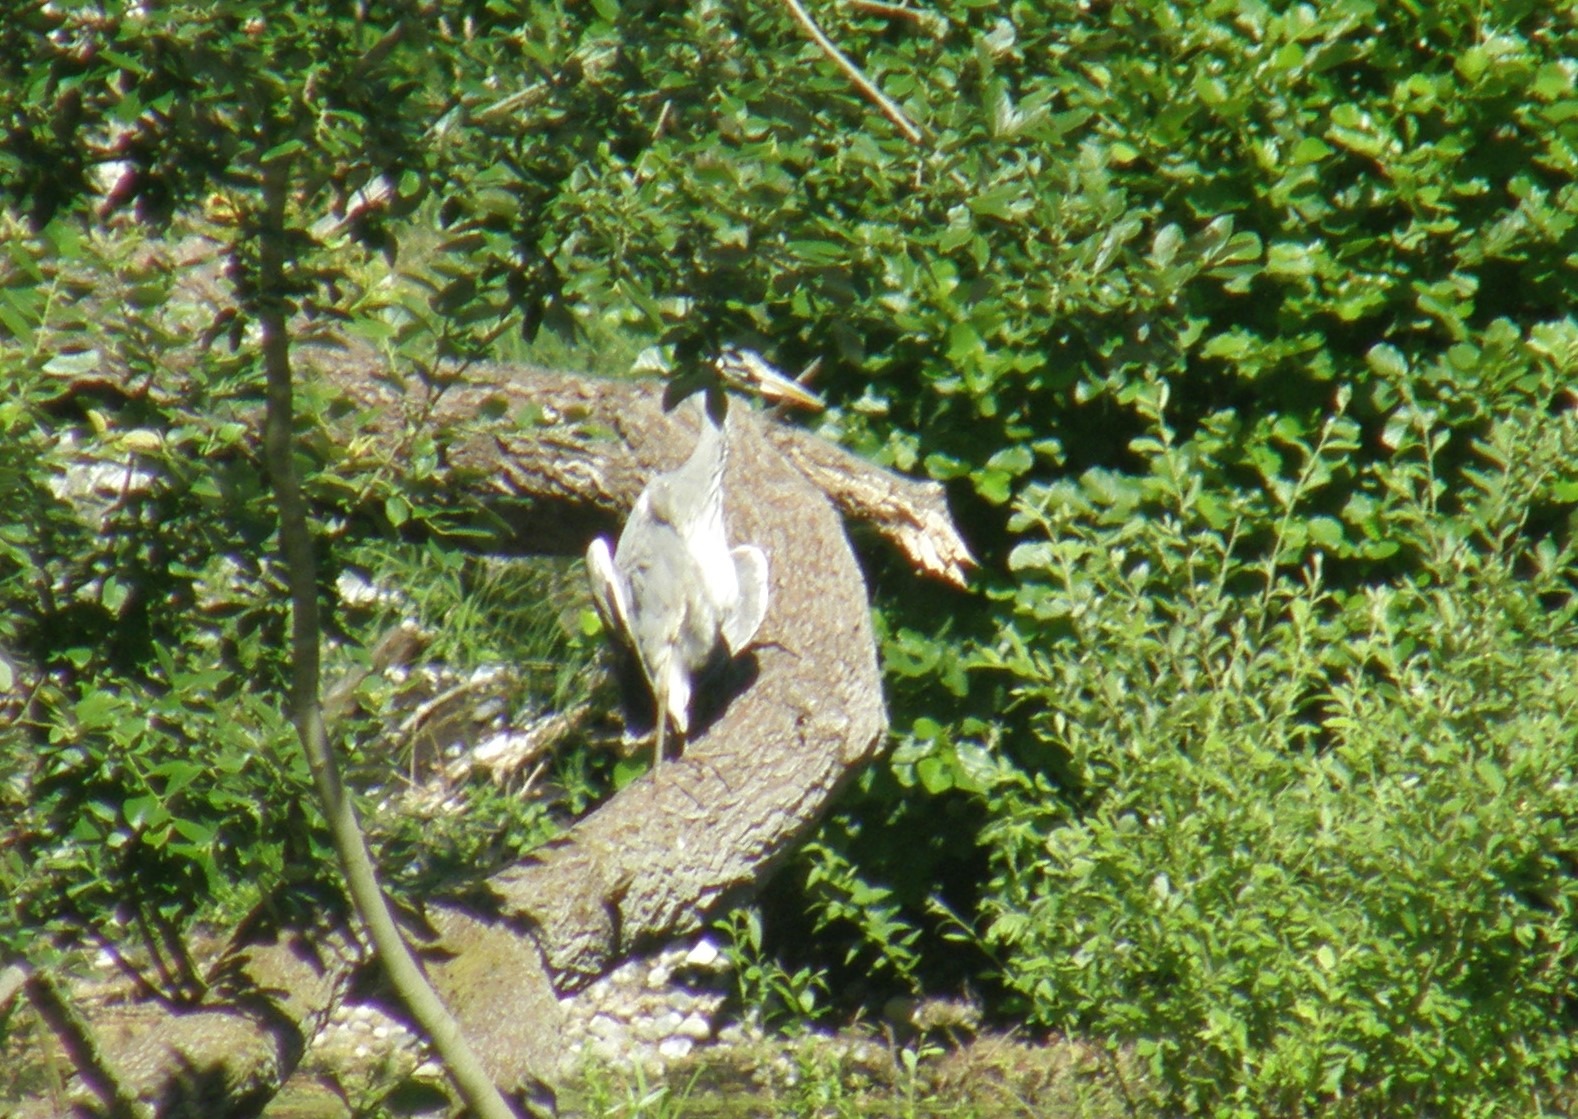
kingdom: Animalia
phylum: Chordata
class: Aves
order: Pelecaniformes
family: Ardeidae
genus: Ardea
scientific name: Ardea cinerea
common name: Fiskehejre
